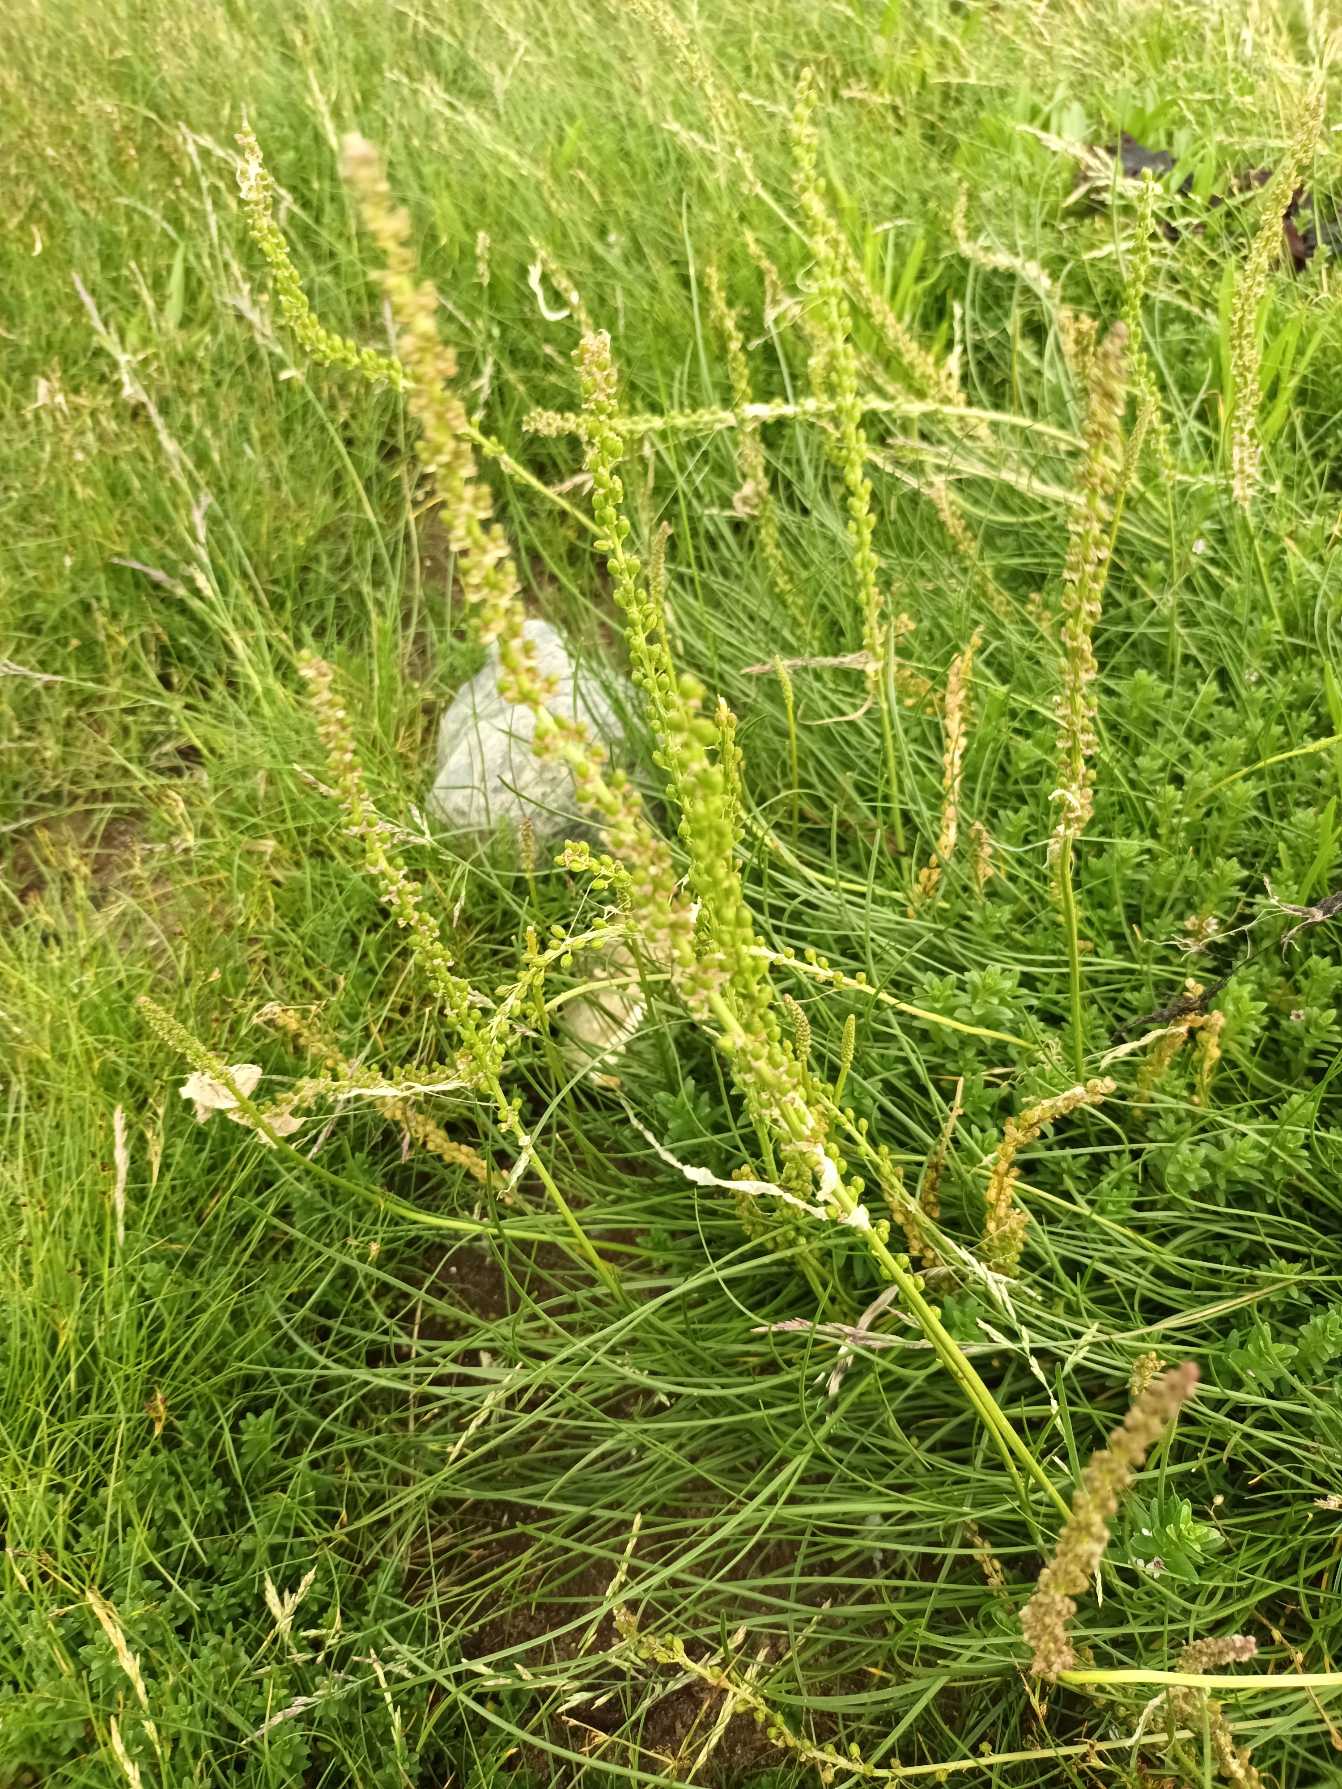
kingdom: Plantae
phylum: Tracheophyta
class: Liliopsida
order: Alismatales
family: Juncaginaceae
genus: Triglochin
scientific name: Triglochin maritima
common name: Strand-trehage
